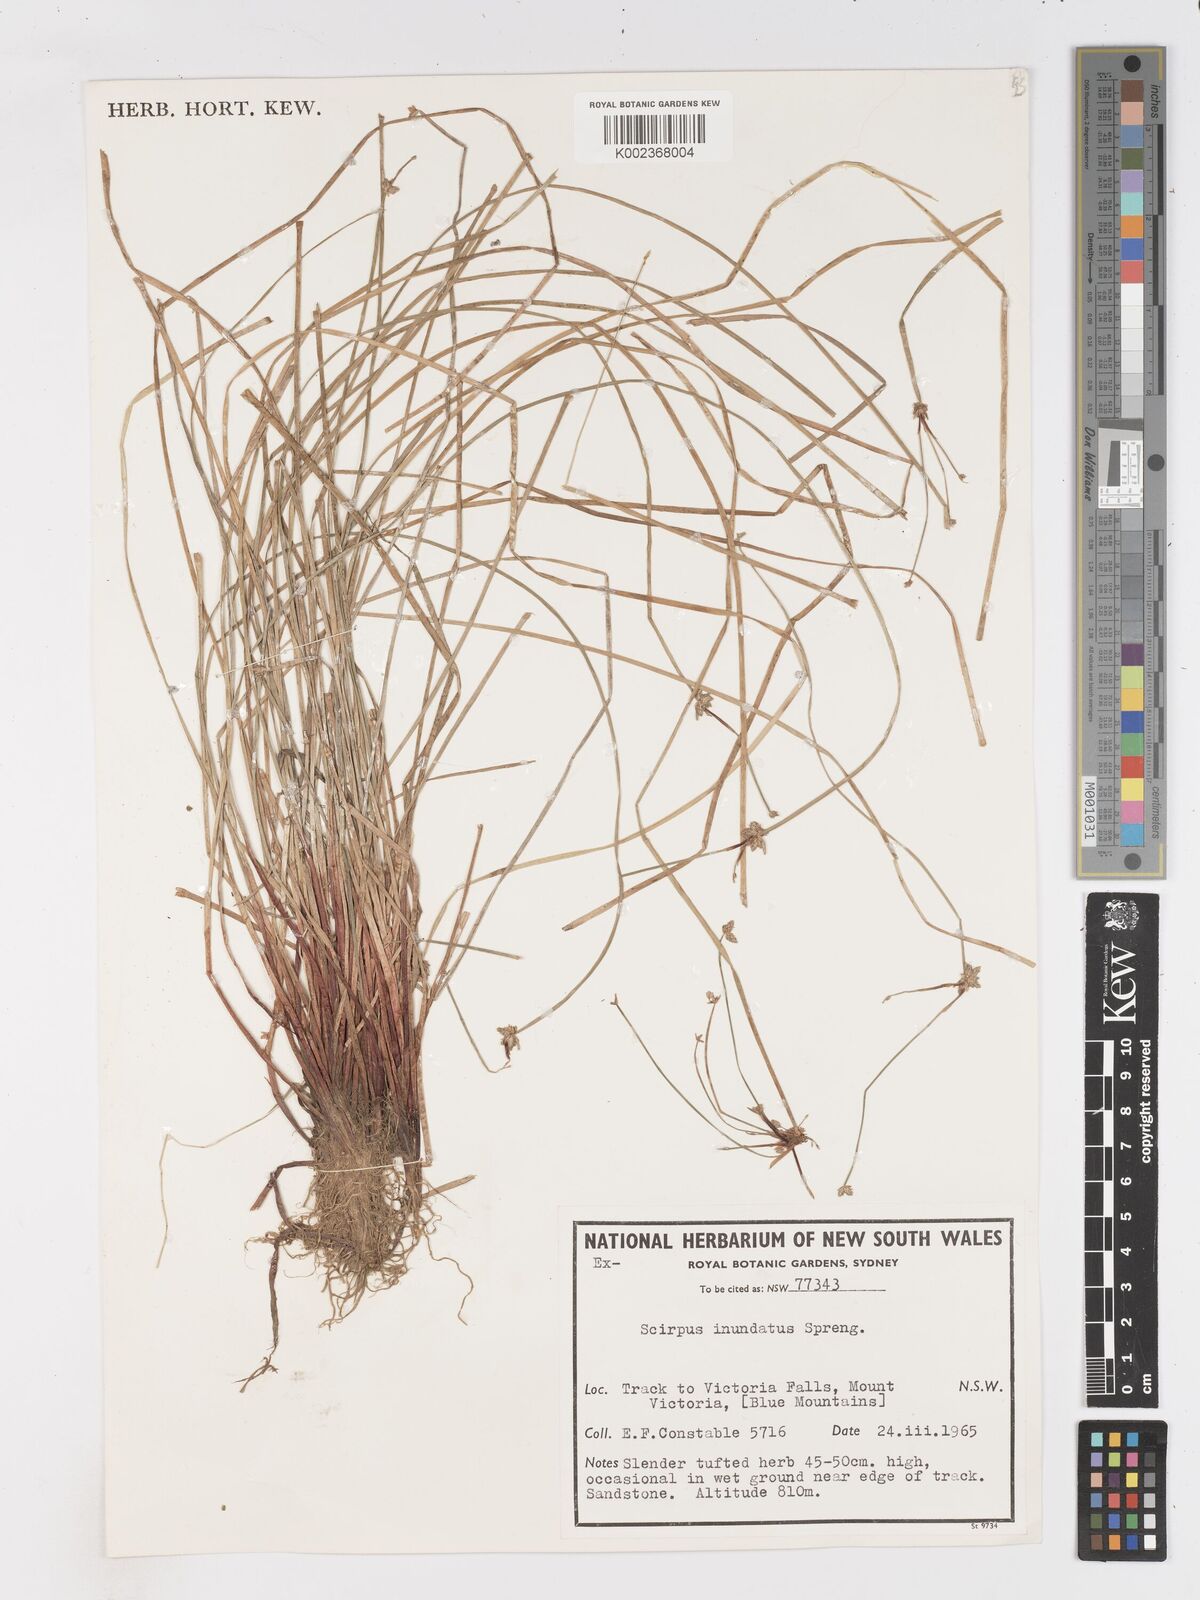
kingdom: Plantae
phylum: Tracheophyta
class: Liliopsida
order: Poales
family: Cyperaceae
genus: Isolepis
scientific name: Isolepis inundata
